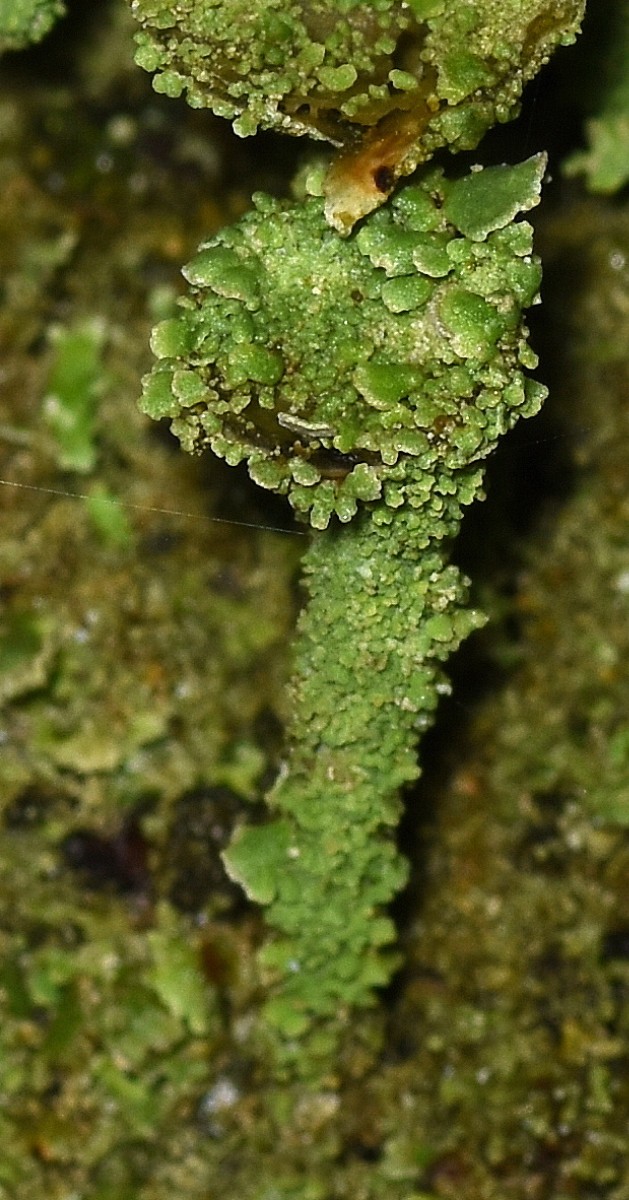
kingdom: Fungi
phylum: Ascomycota
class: Lecanoromycetes
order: Lecanorales
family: Cladoniaceae
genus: Cladonia
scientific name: Cladonia pyxidata
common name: tragt-bægerlav
